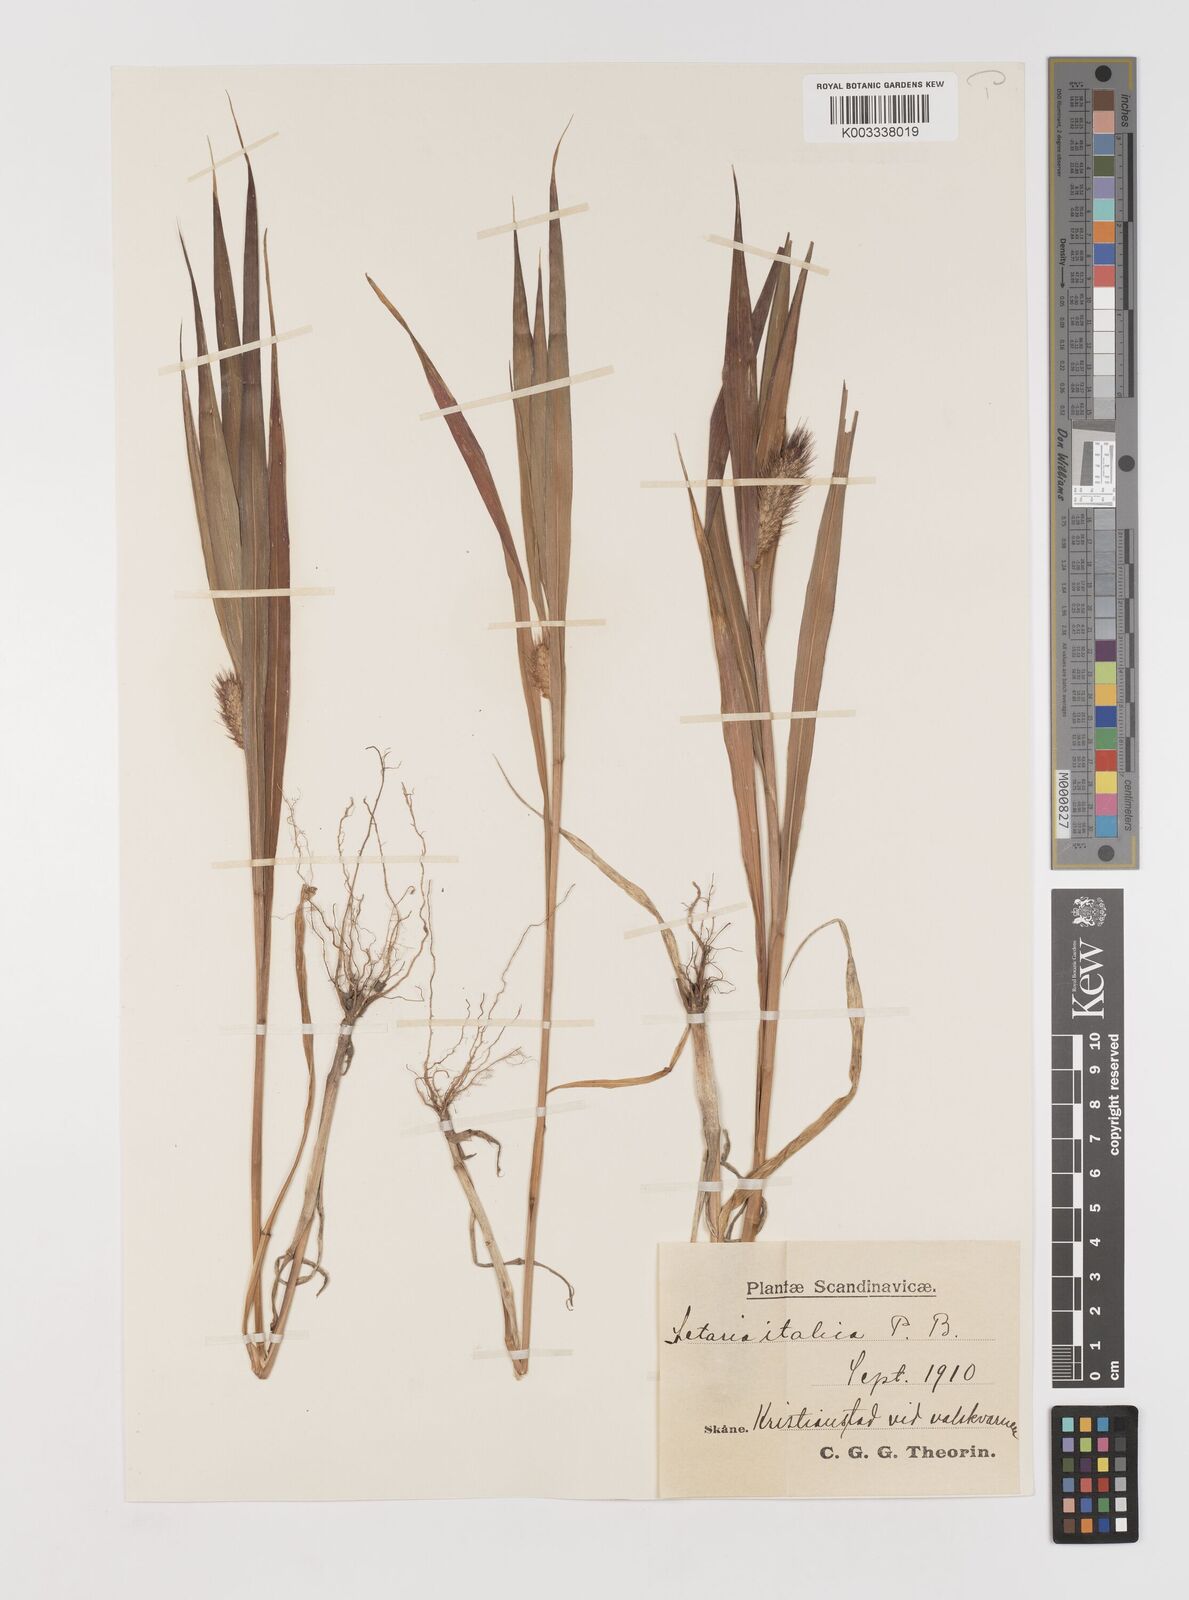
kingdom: Plantae
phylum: Tracheophyta
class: Liliopsida
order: Poales
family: Poaceae
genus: Setaria
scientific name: Setaria italica
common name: Foxtail bristle-grass
